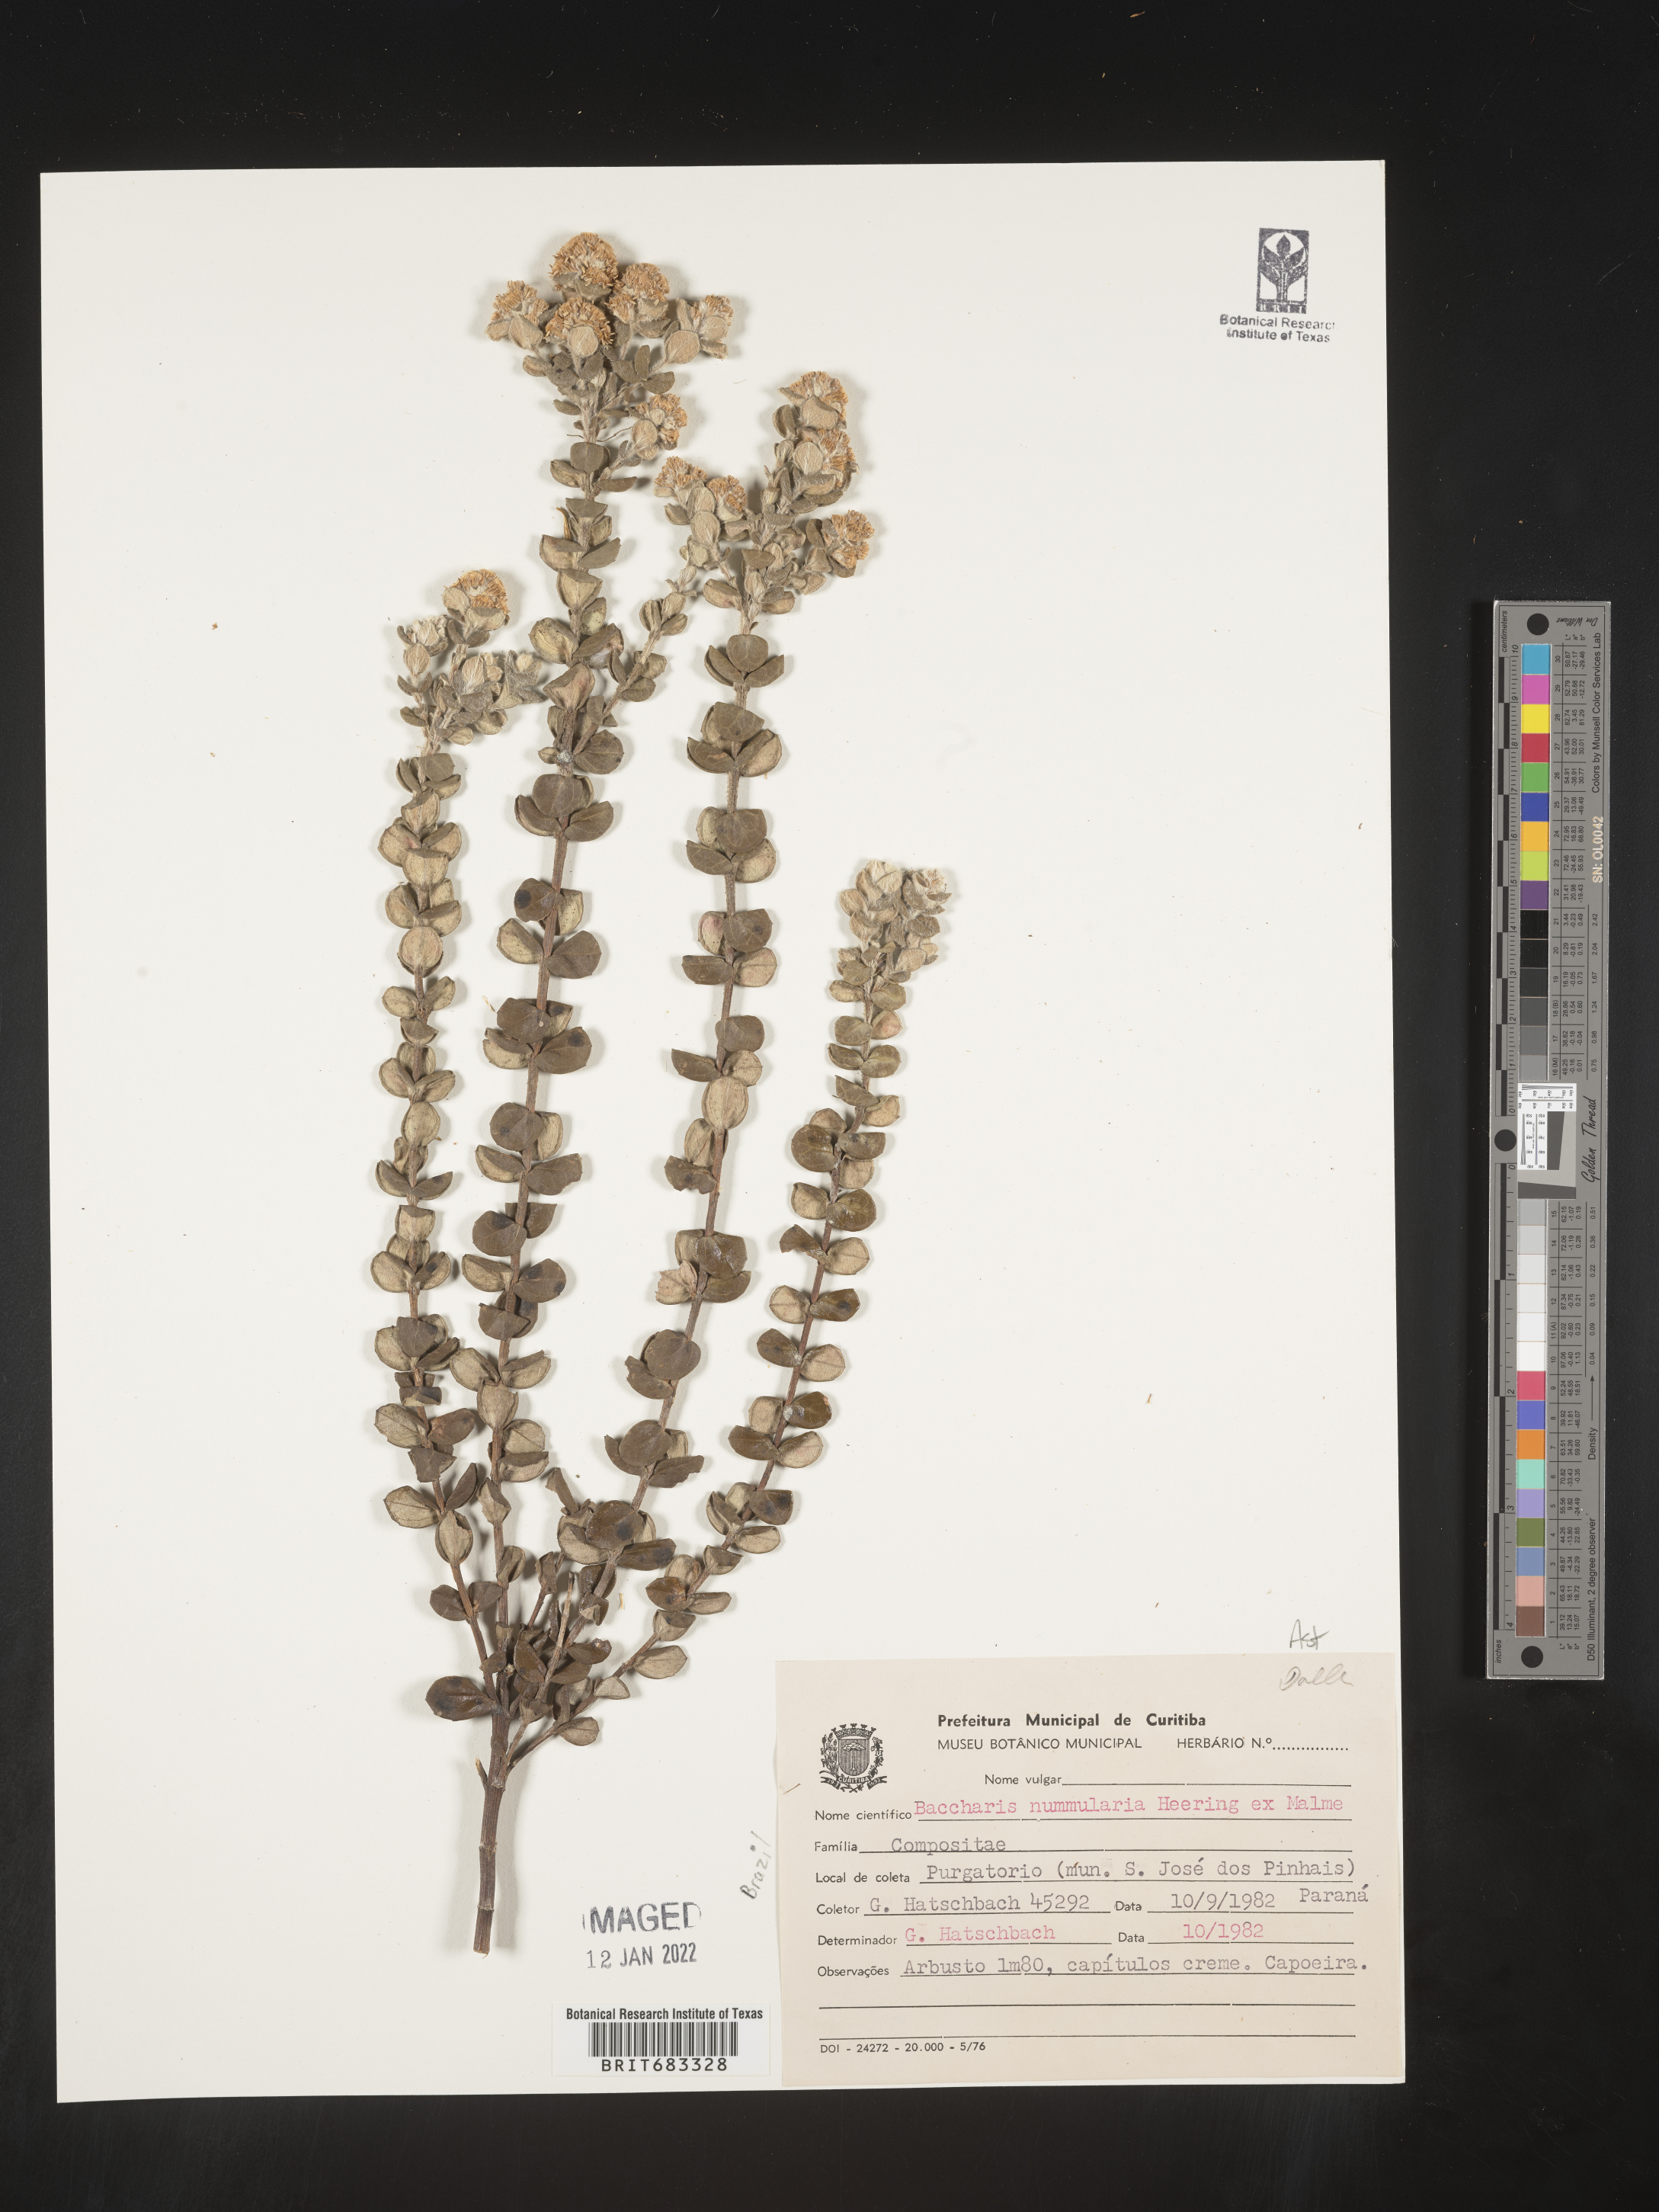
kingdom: Plantae
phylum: Tracheophyta
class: Magnoliopsida
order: Asterales
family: Asteraceae
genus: Baccharis
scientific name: Baccharis
